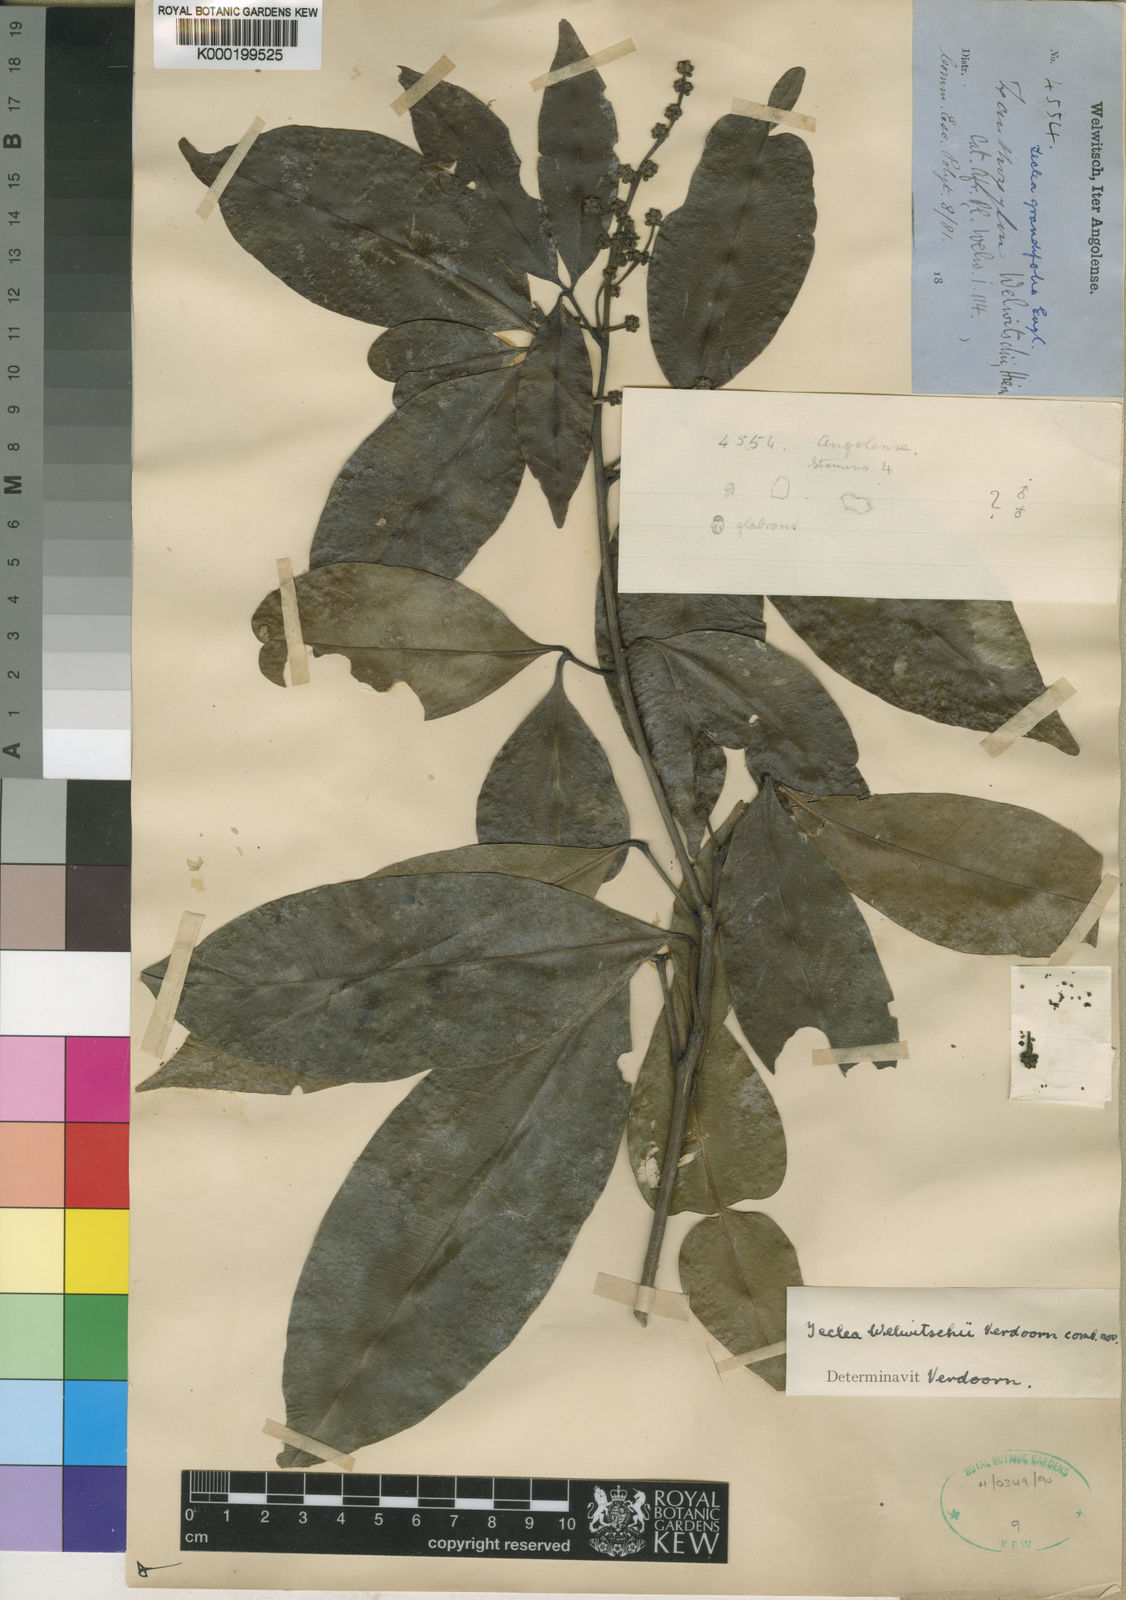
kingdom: Plantae
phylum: Tracheophyta
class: Magnoliopsida
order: Sapindales
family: Rutaceae
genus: Vepris
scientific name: Vepris grandifolia
